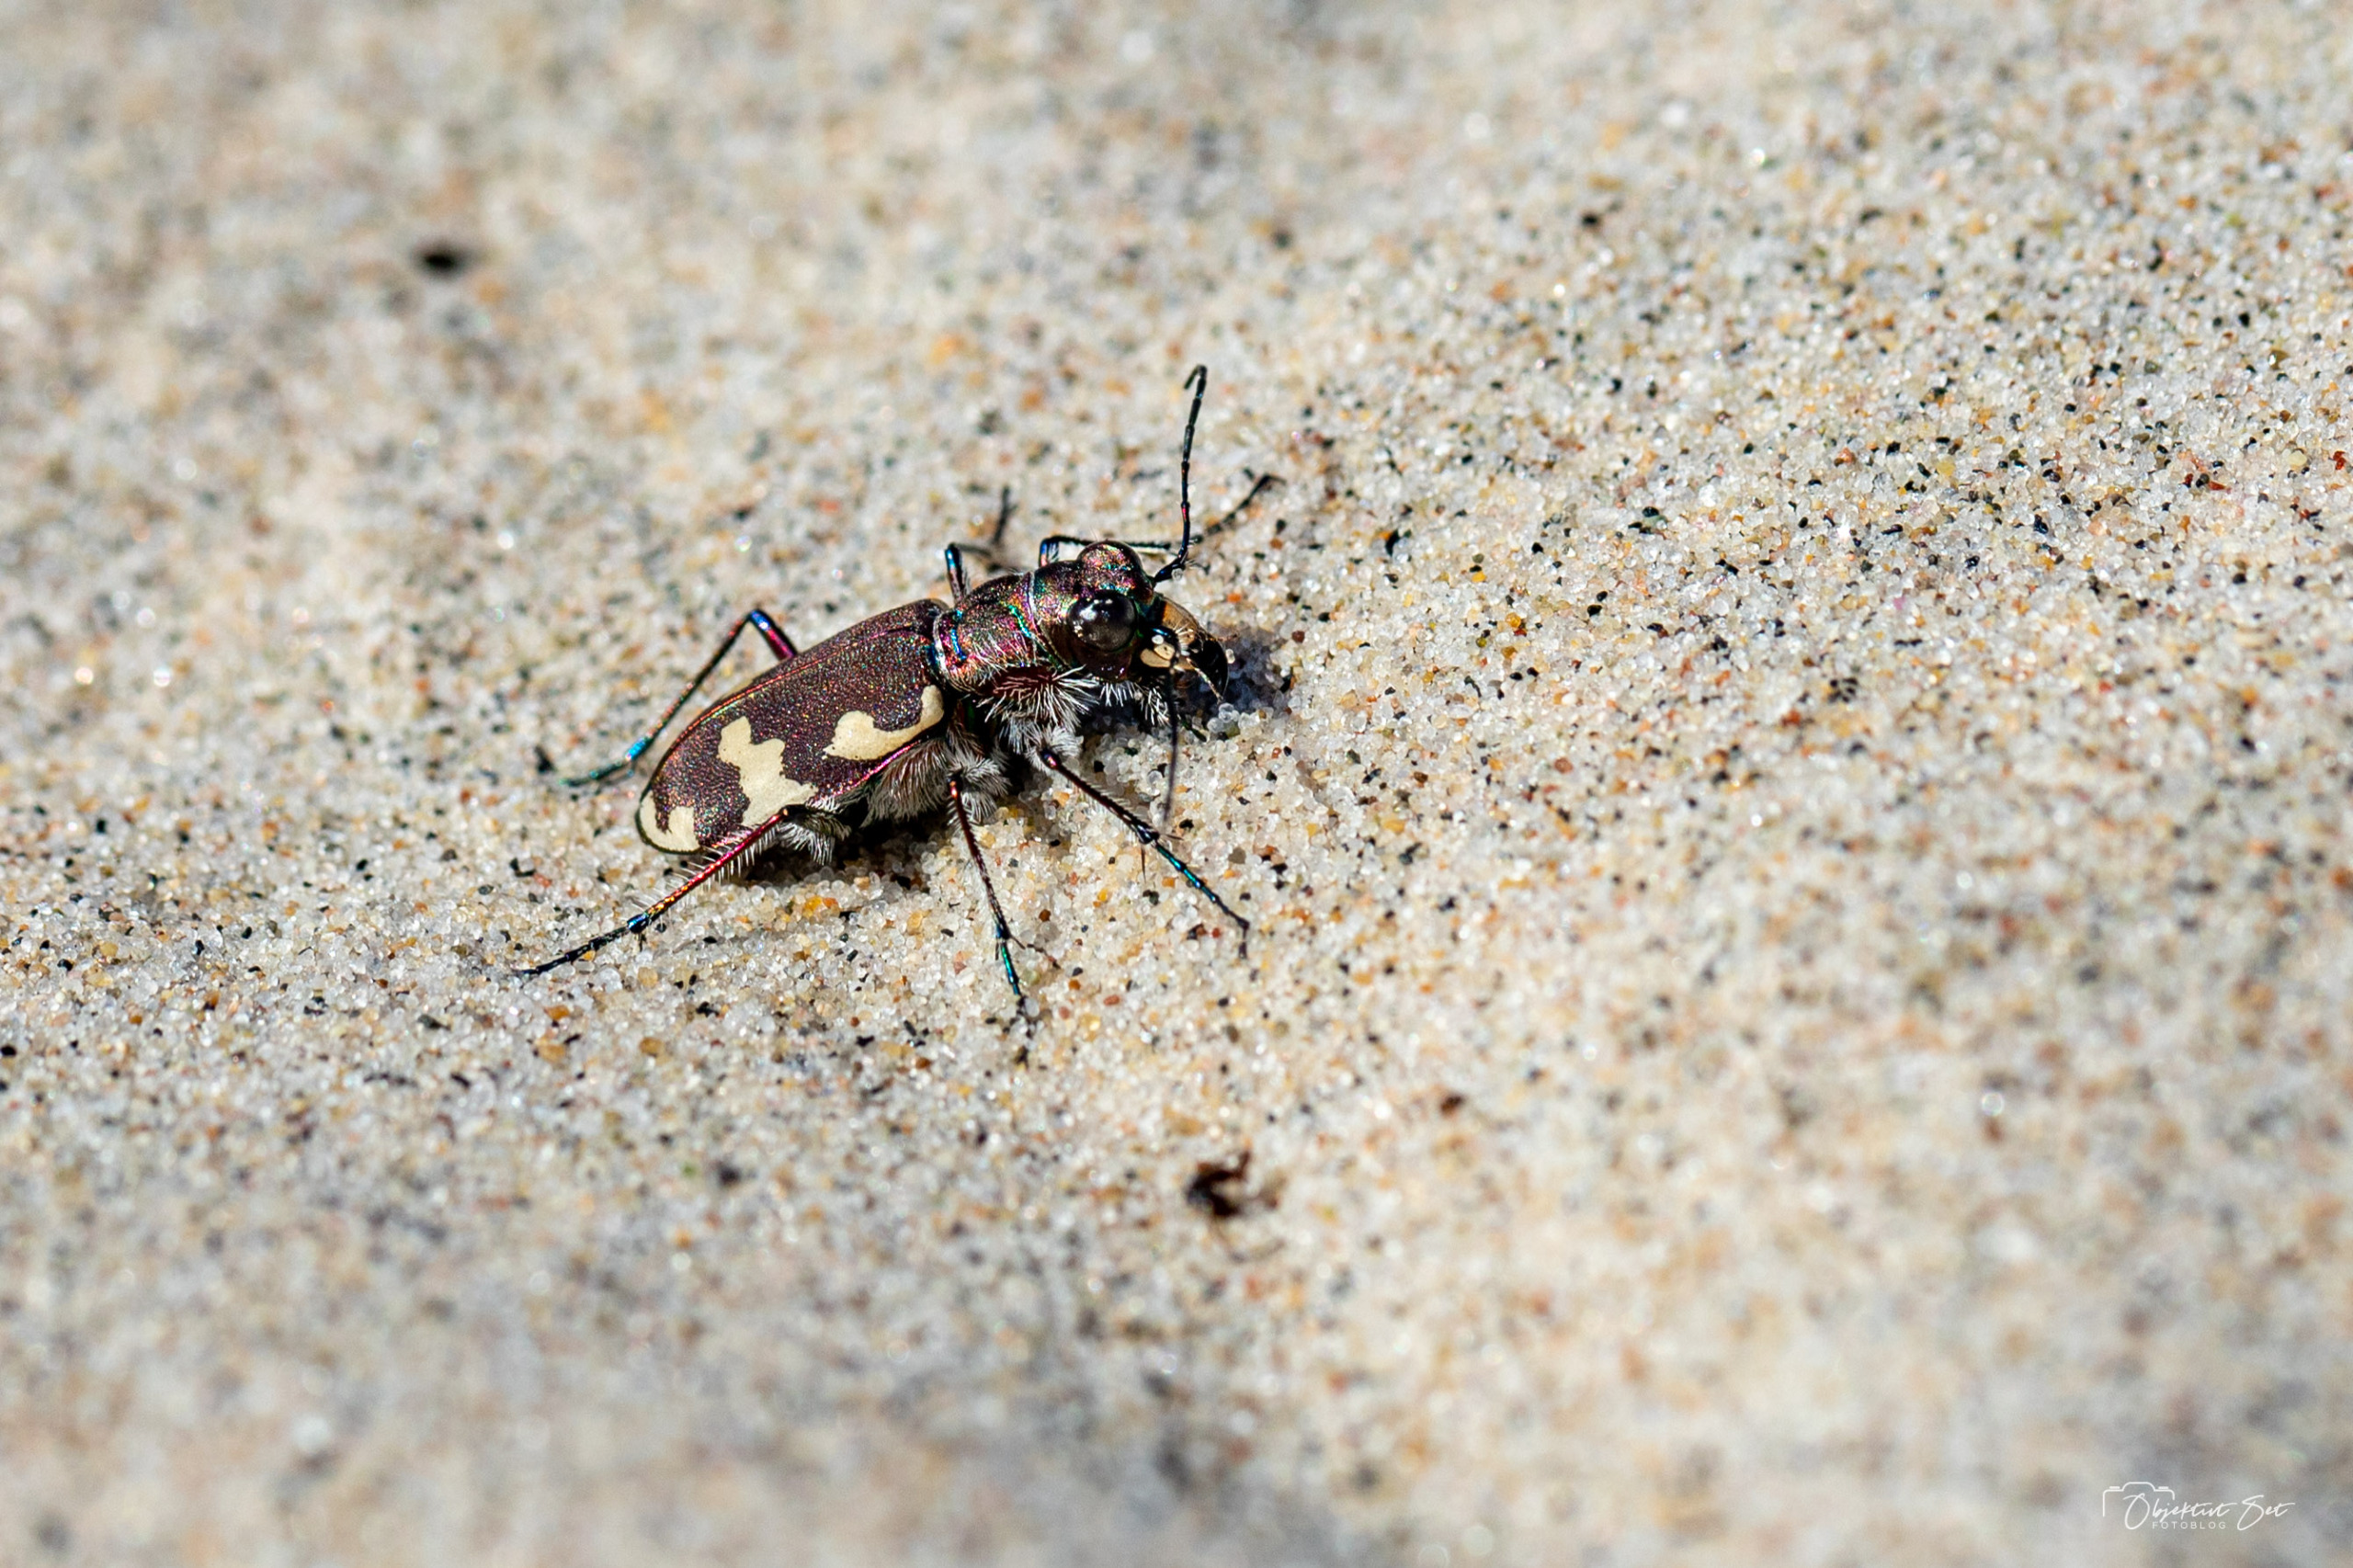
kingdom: Animalia
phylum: Arthropoda
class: Insecta
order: Coleoptera
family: Carabidae
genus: Cicindela
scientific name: Cicindela hybrida
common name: Brun sandspringer
